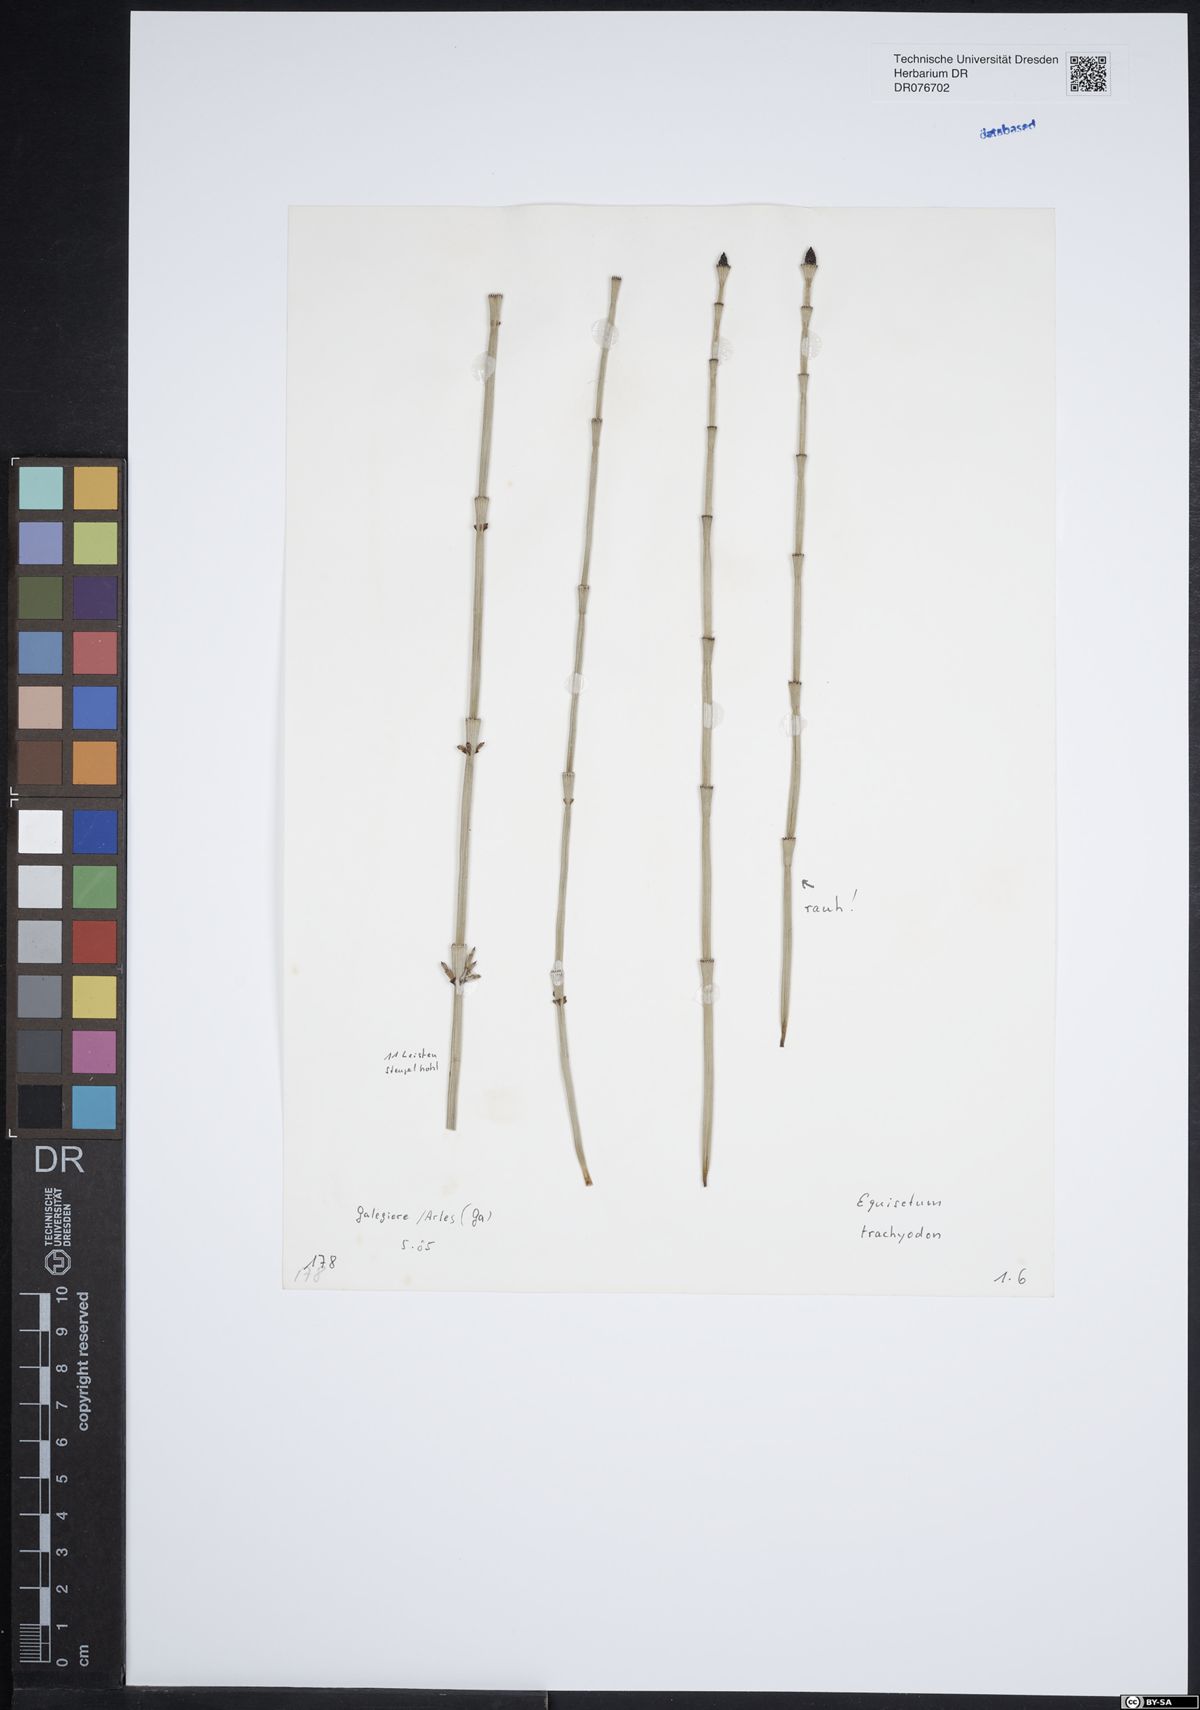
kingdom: Plantae
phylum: Tracheophyta
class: Polypodiopsida
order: Equisetales
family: Equisetaceae
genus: Equisetum
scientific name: Equisetum trachyodon
